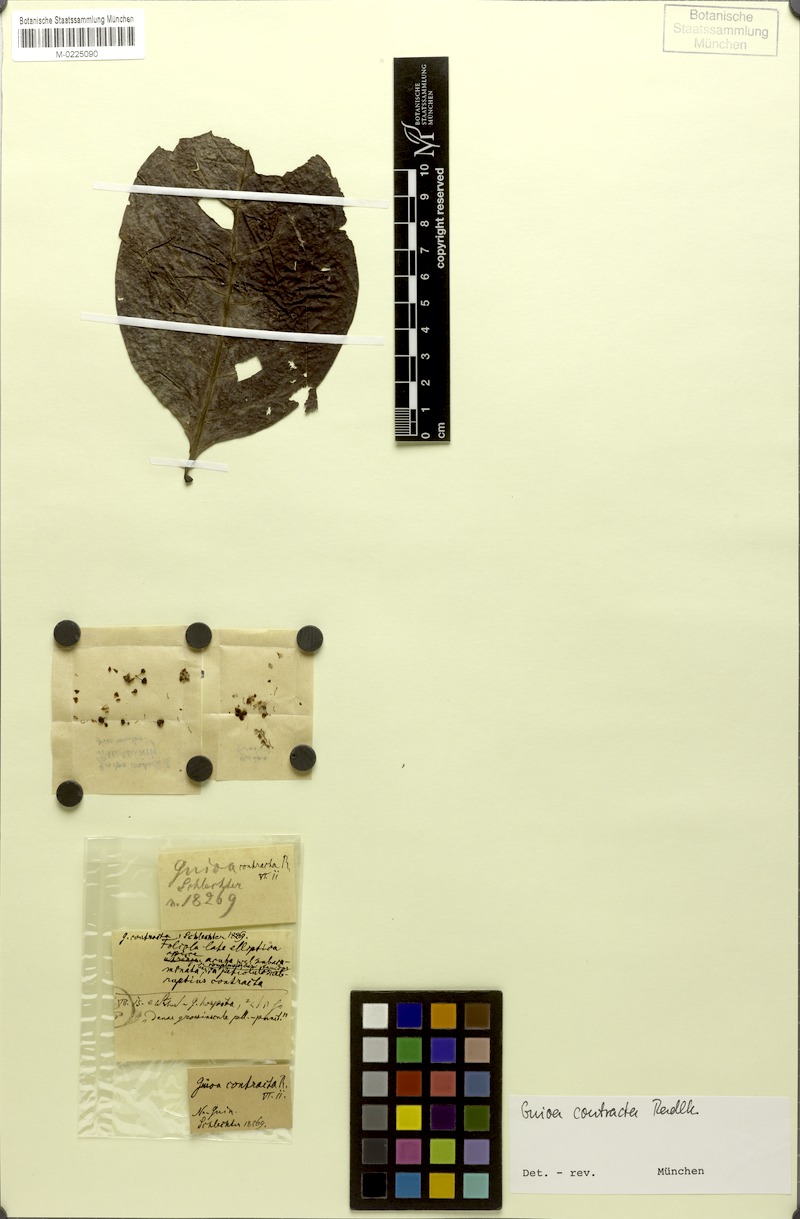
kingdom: Plantae
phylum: Tracheophyta
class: Magnoliopsida
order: Sapindales
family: Sapindaceae
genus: Guioa
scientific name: Guioa contracta
